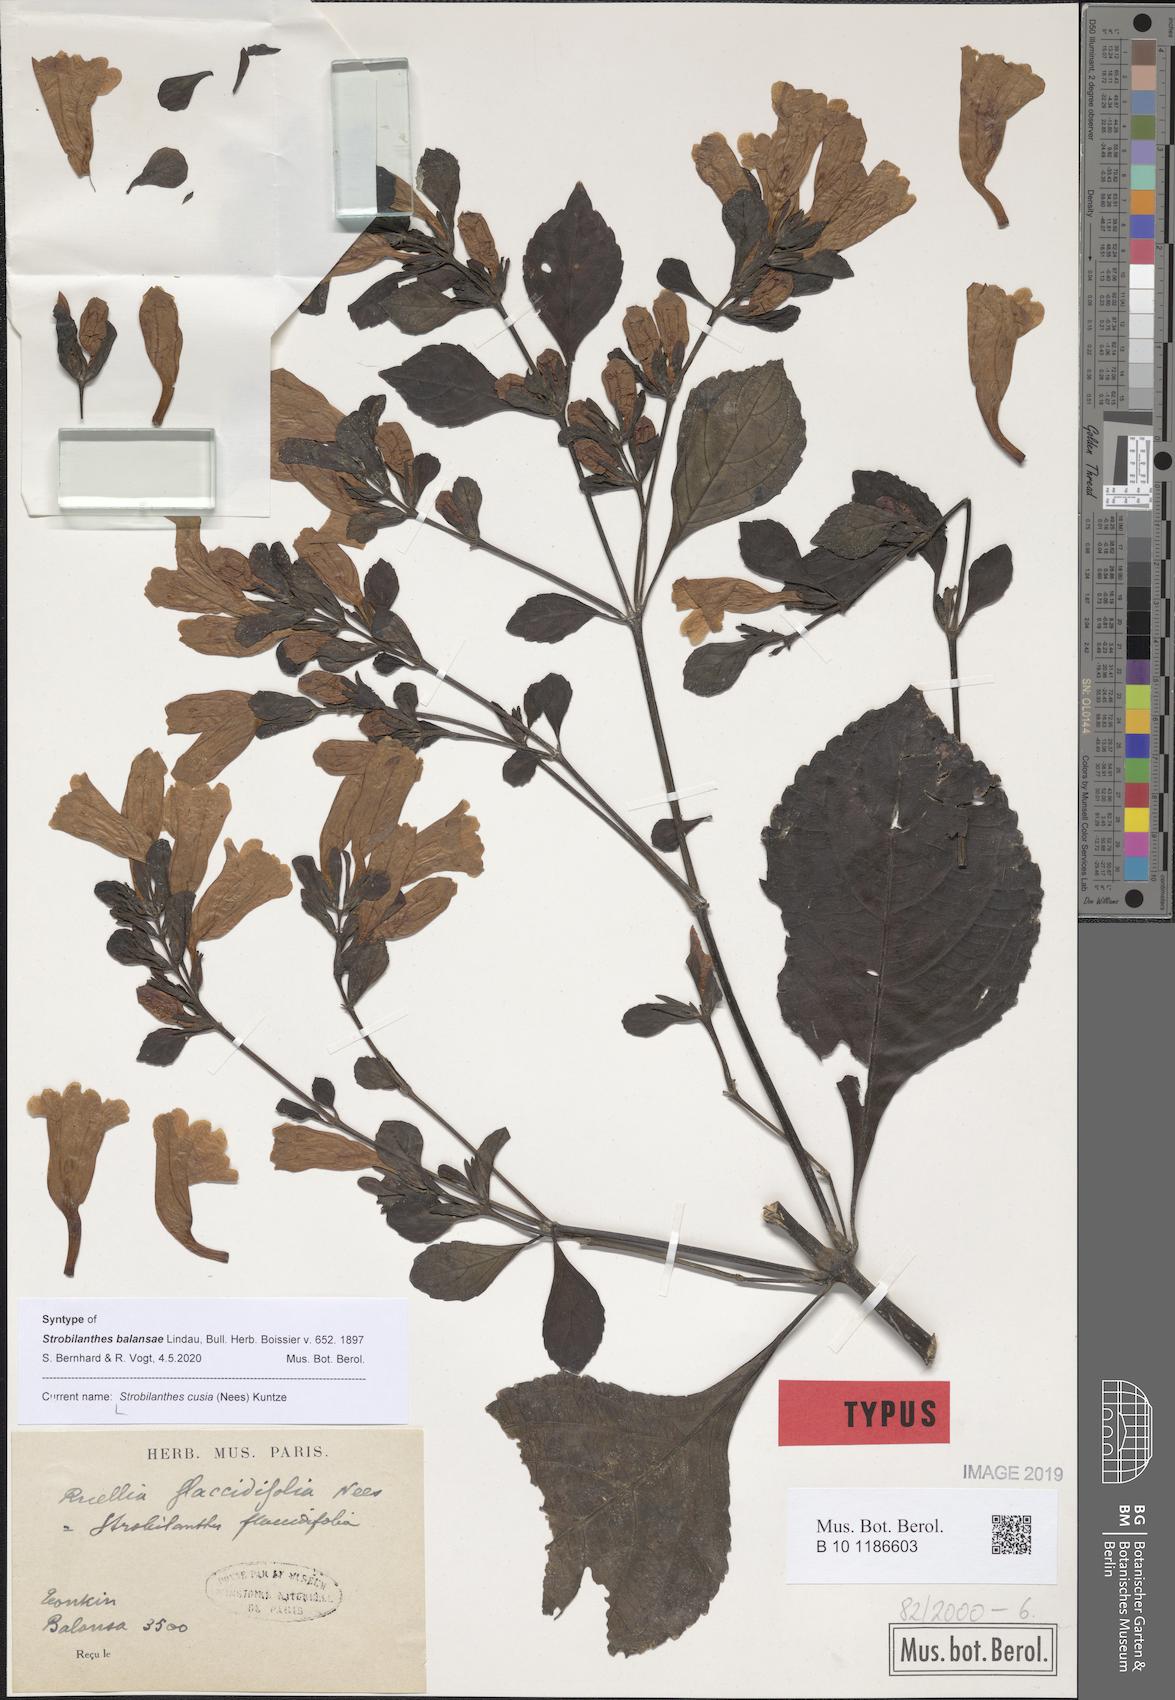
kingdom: Plantae
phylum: Tracheophyta
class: Magnoliopsida
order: Lamiales
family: Acanthaceae
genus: Strobilanthes
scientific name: Strobilanthes cusia
